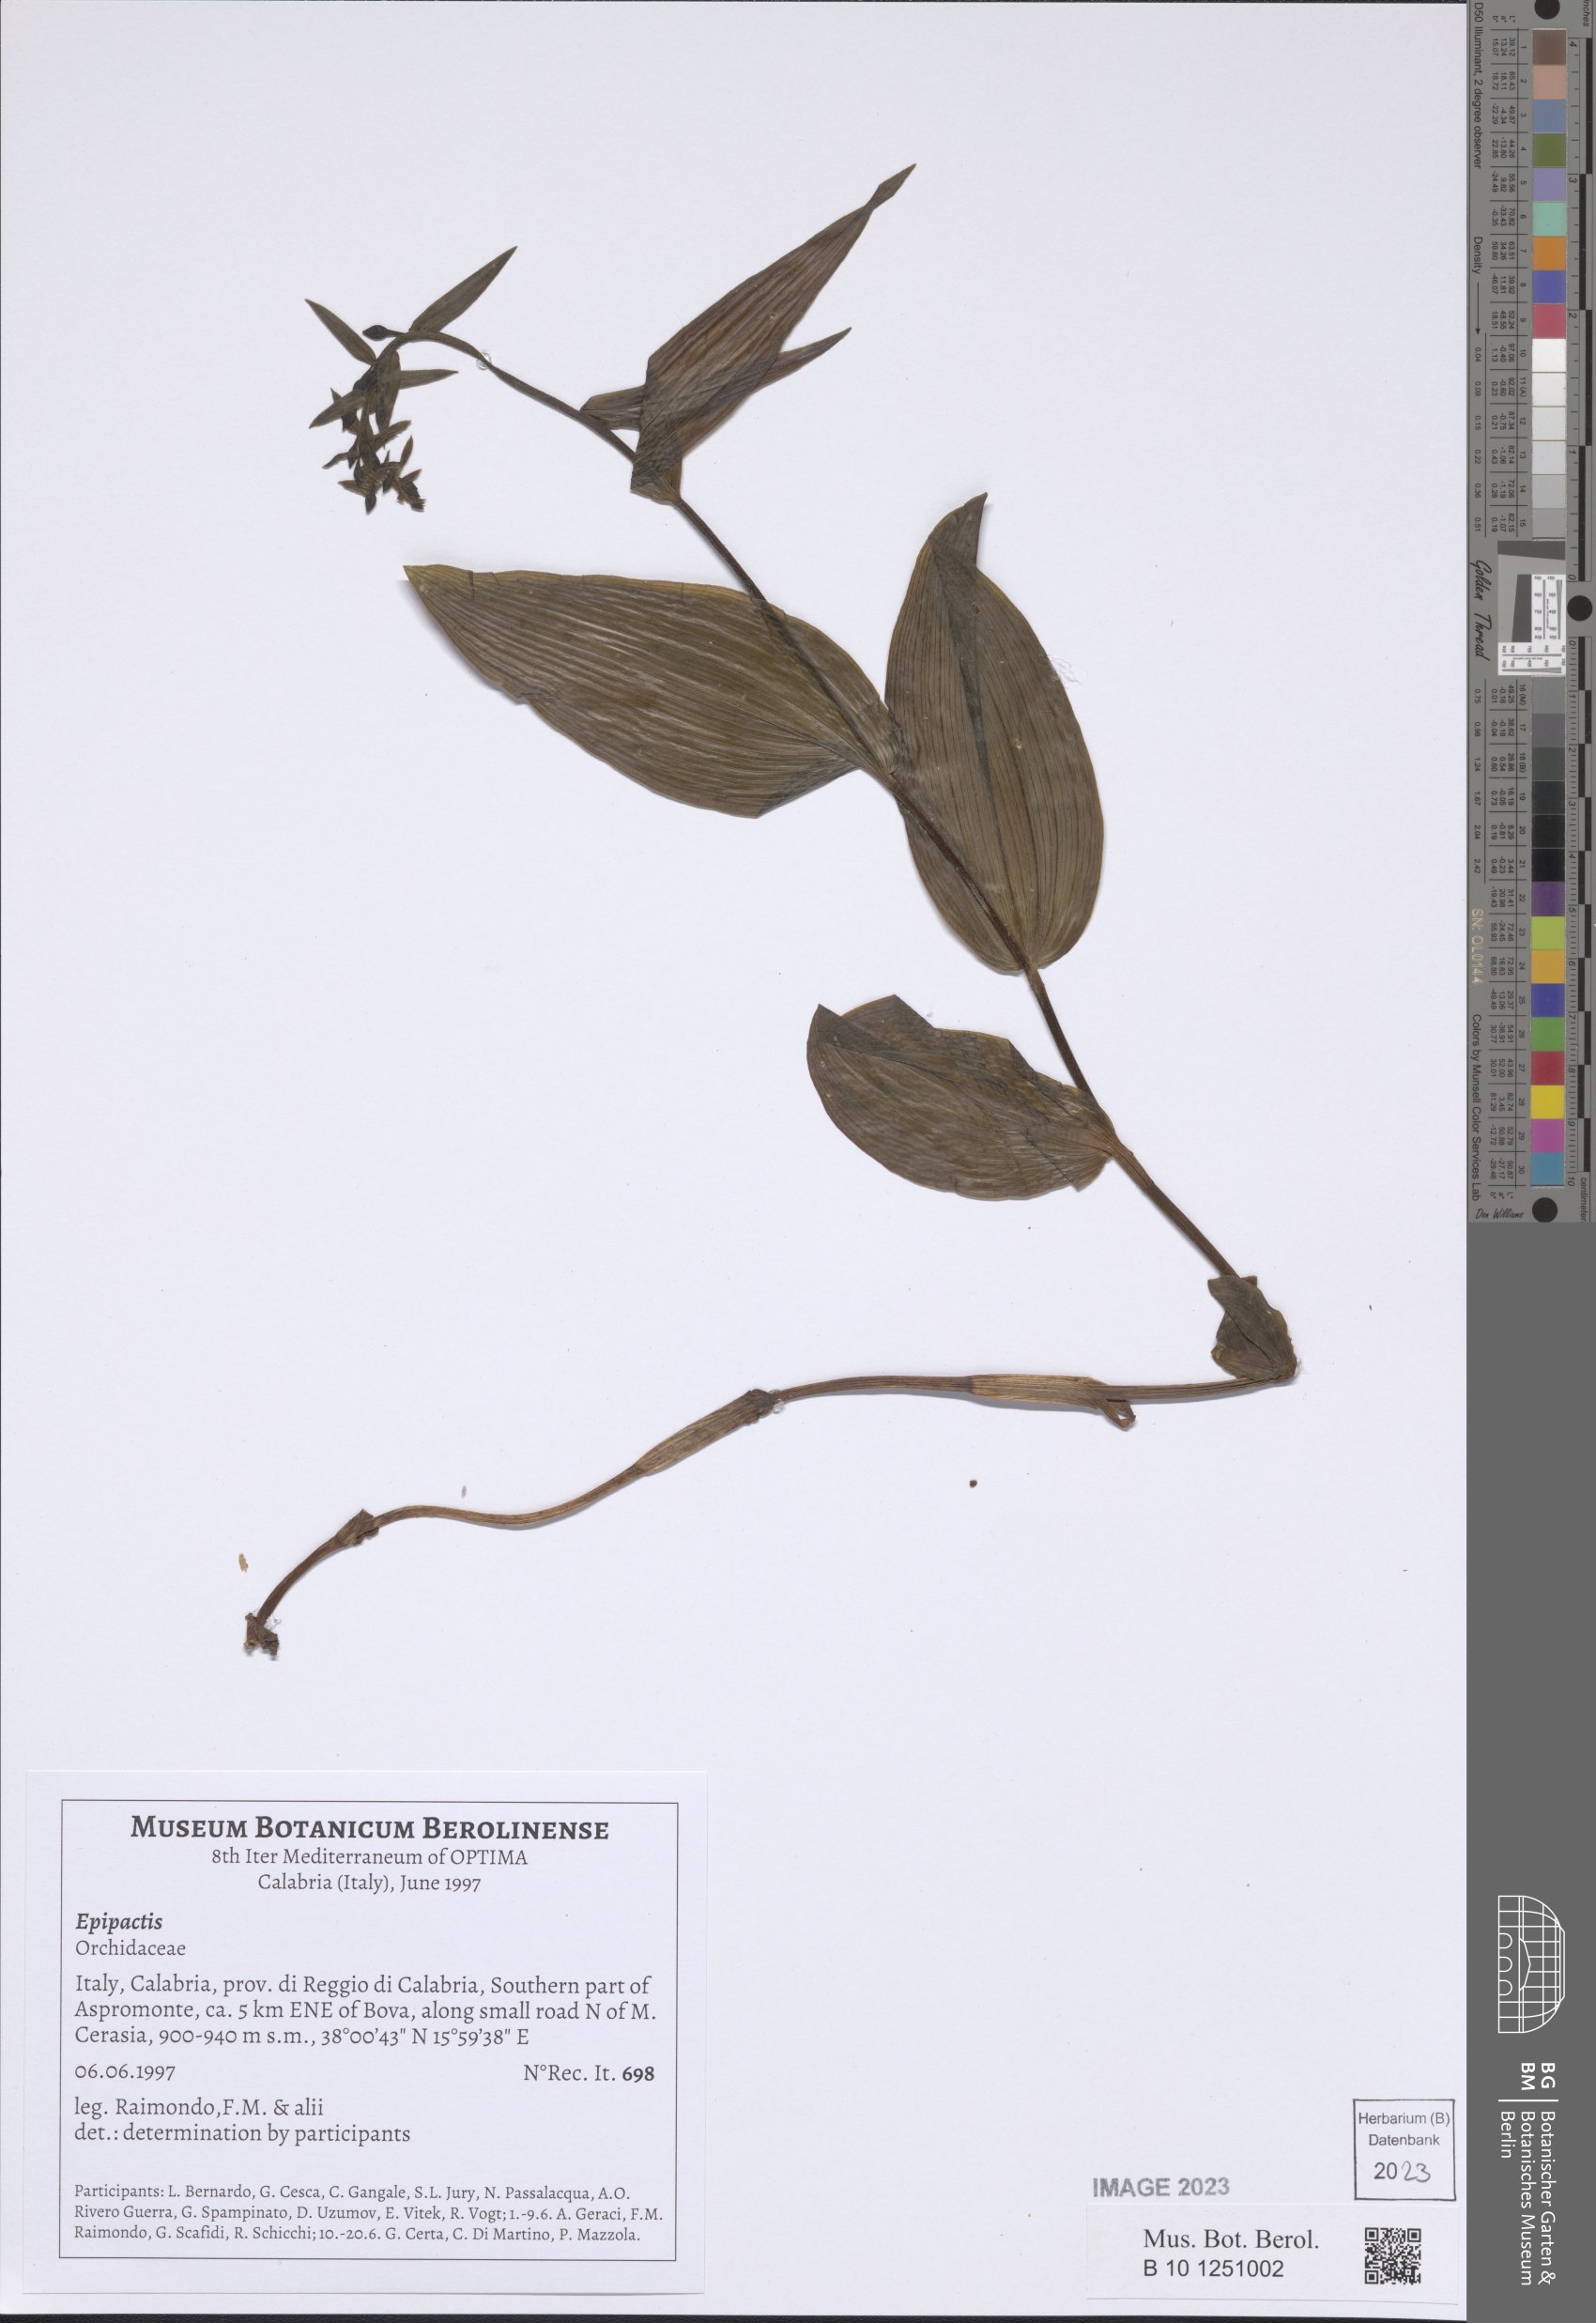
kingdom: Plantae
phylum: Tracheophyta
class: Liliopsida
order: Asparagales
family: Orchidaceae
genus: Epipactis
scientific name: Epipactis
